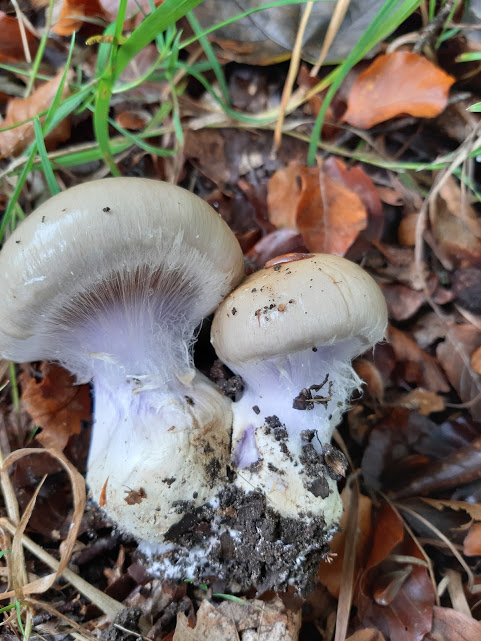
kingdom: Fungi
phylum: Basidiomycota
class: Agaricomycetes
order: Agaricales
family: Cortinariaceae
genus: Cortinarius
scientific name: Cortinarius anserinus
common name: bøge-slørhat
